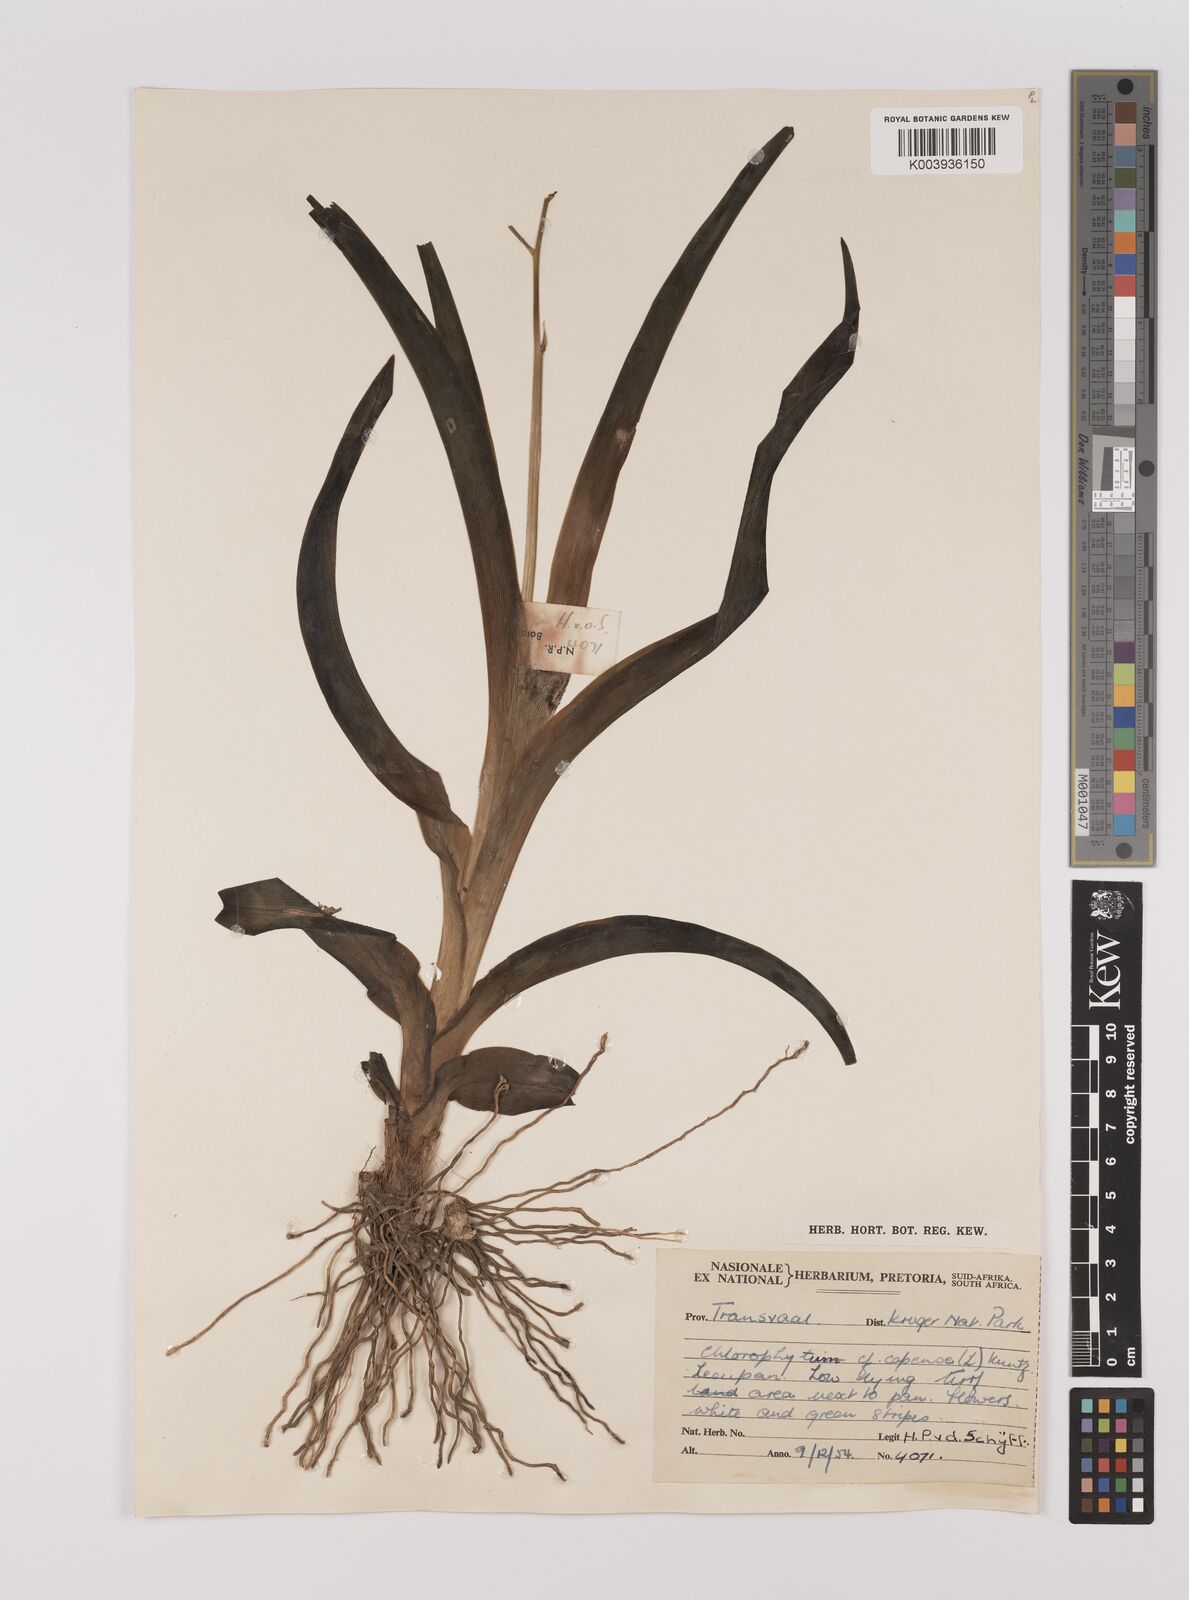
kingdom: Plantae
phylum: Tracheophyta
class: Liliopsida
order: Asparagales
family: Asparagaceae
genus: Chlorophytum
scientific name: Chlorophytum
